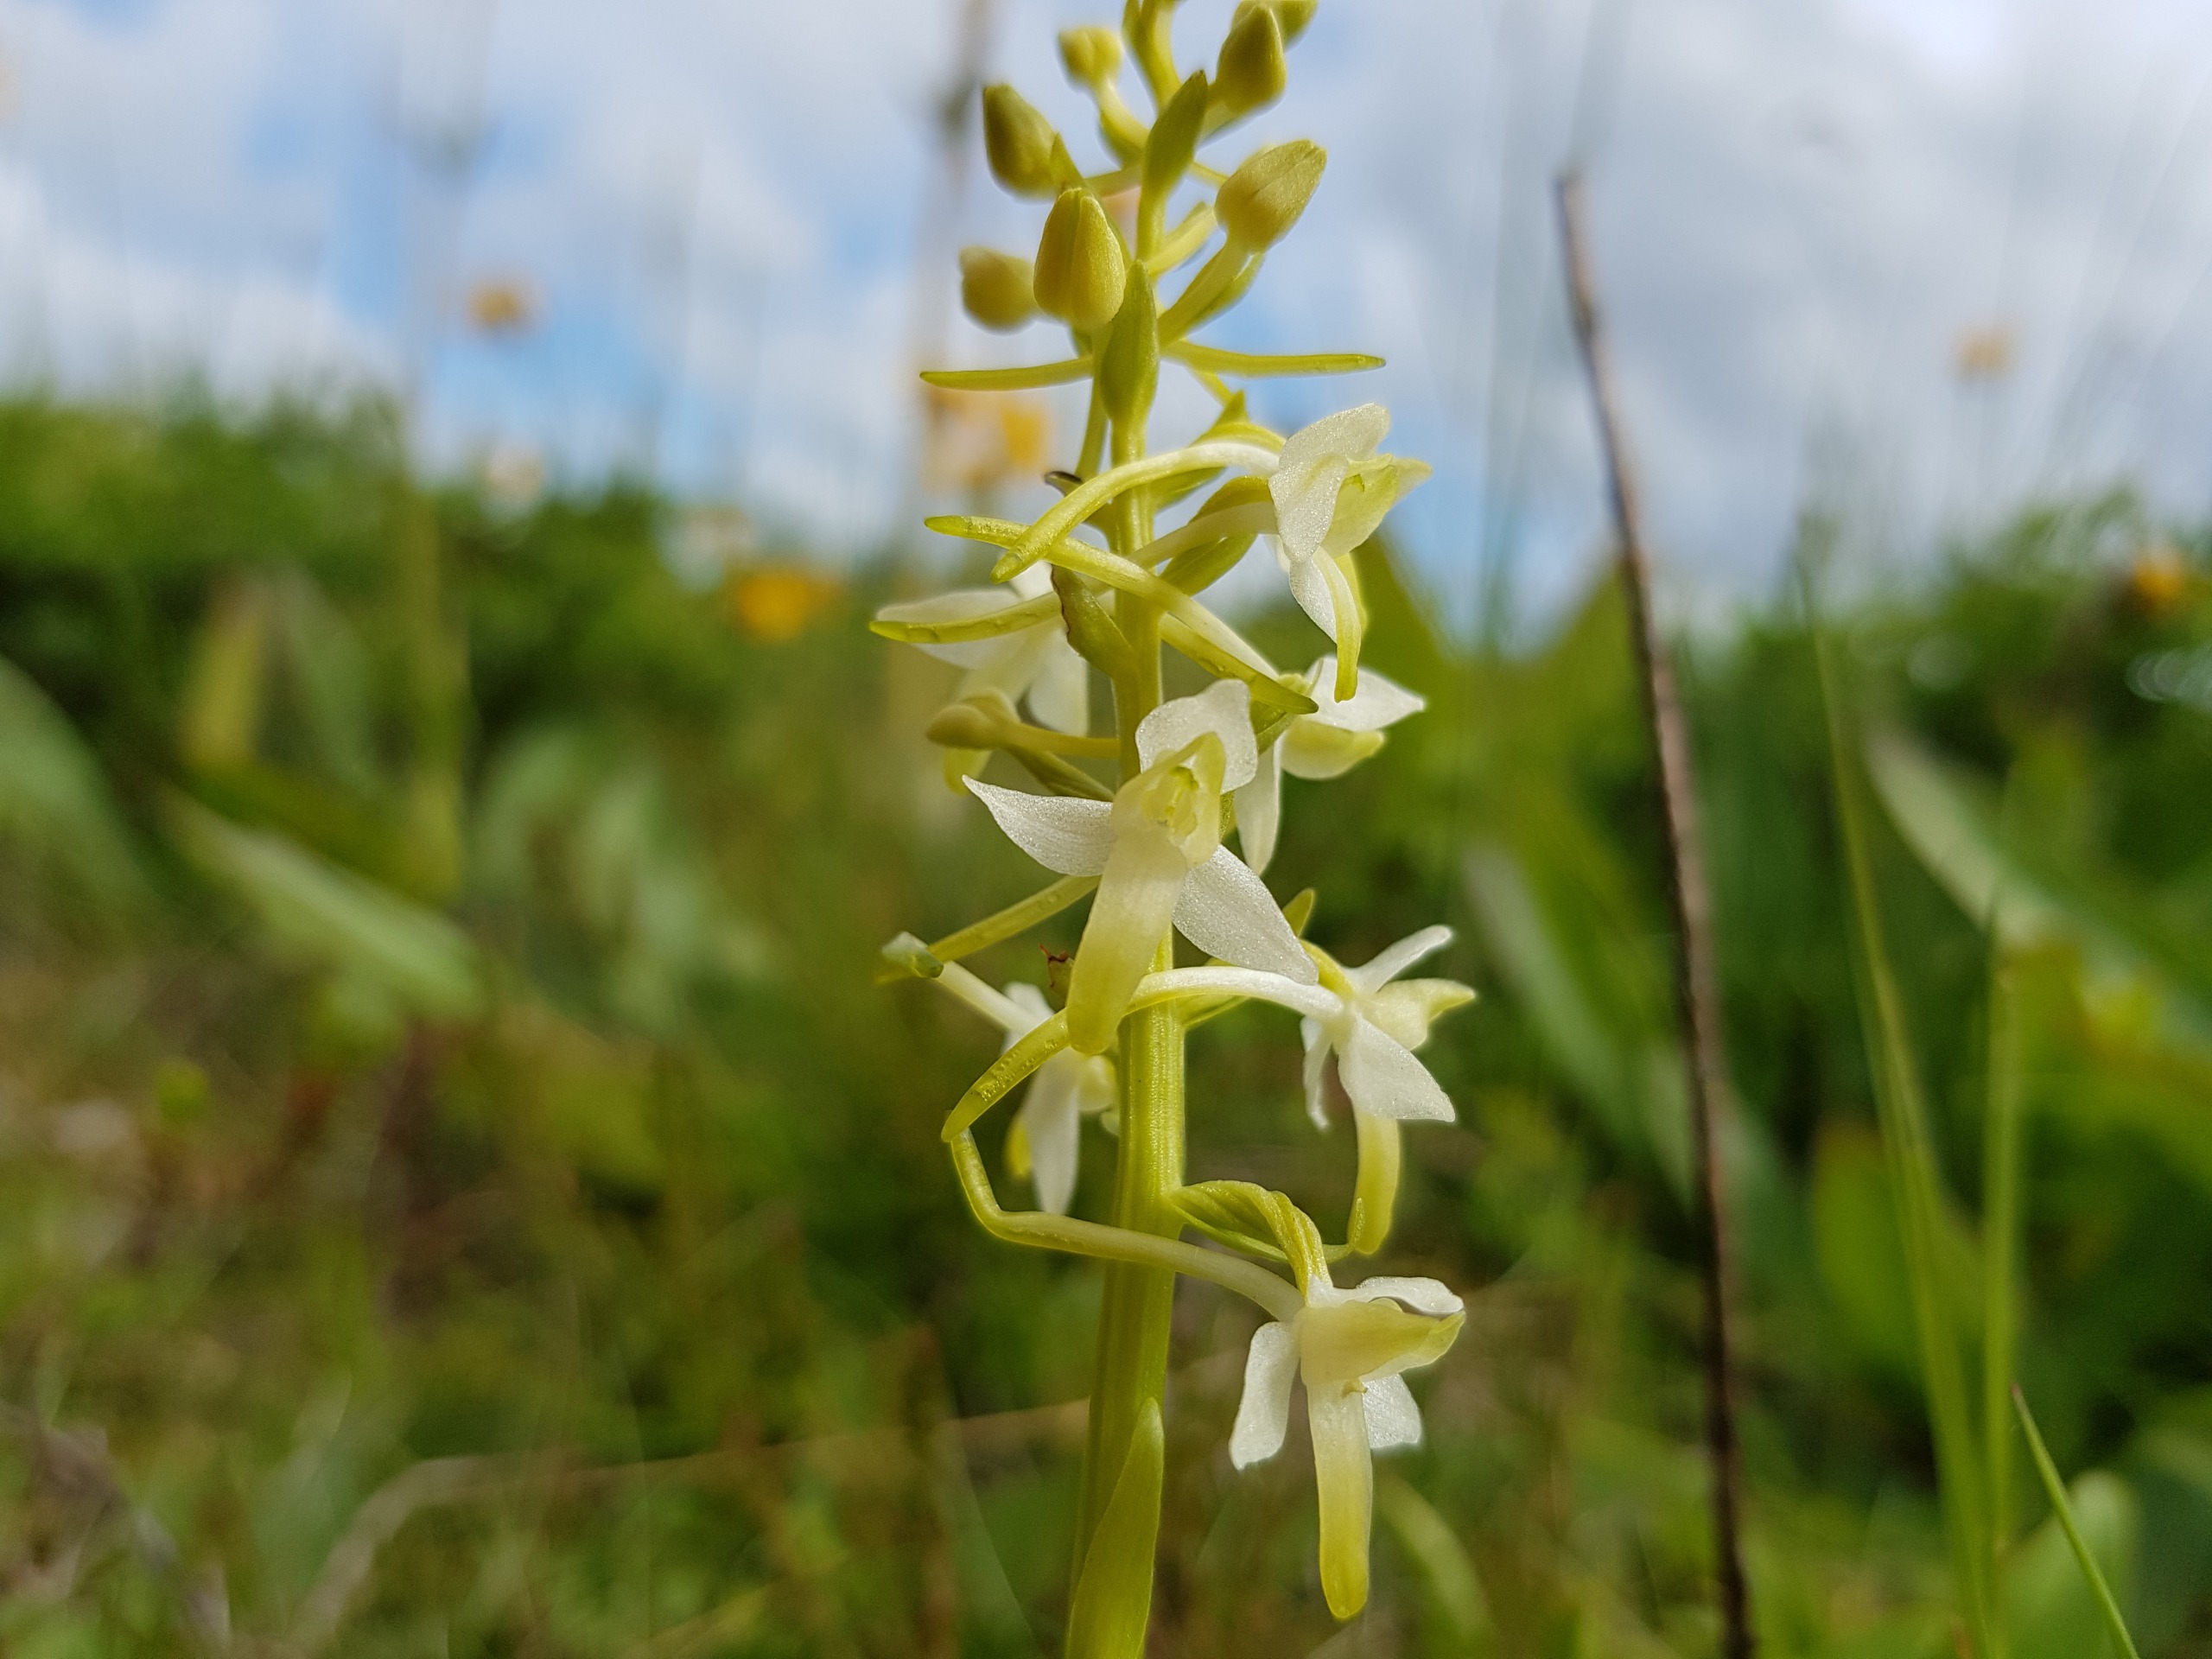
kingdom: Plantae
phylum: Tracheophyta
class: Liliopsida
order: Asparagales
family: Orchidaceae
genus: Platanthera
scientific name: Platanthera bifolia
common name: Bakke-gøgelilje
